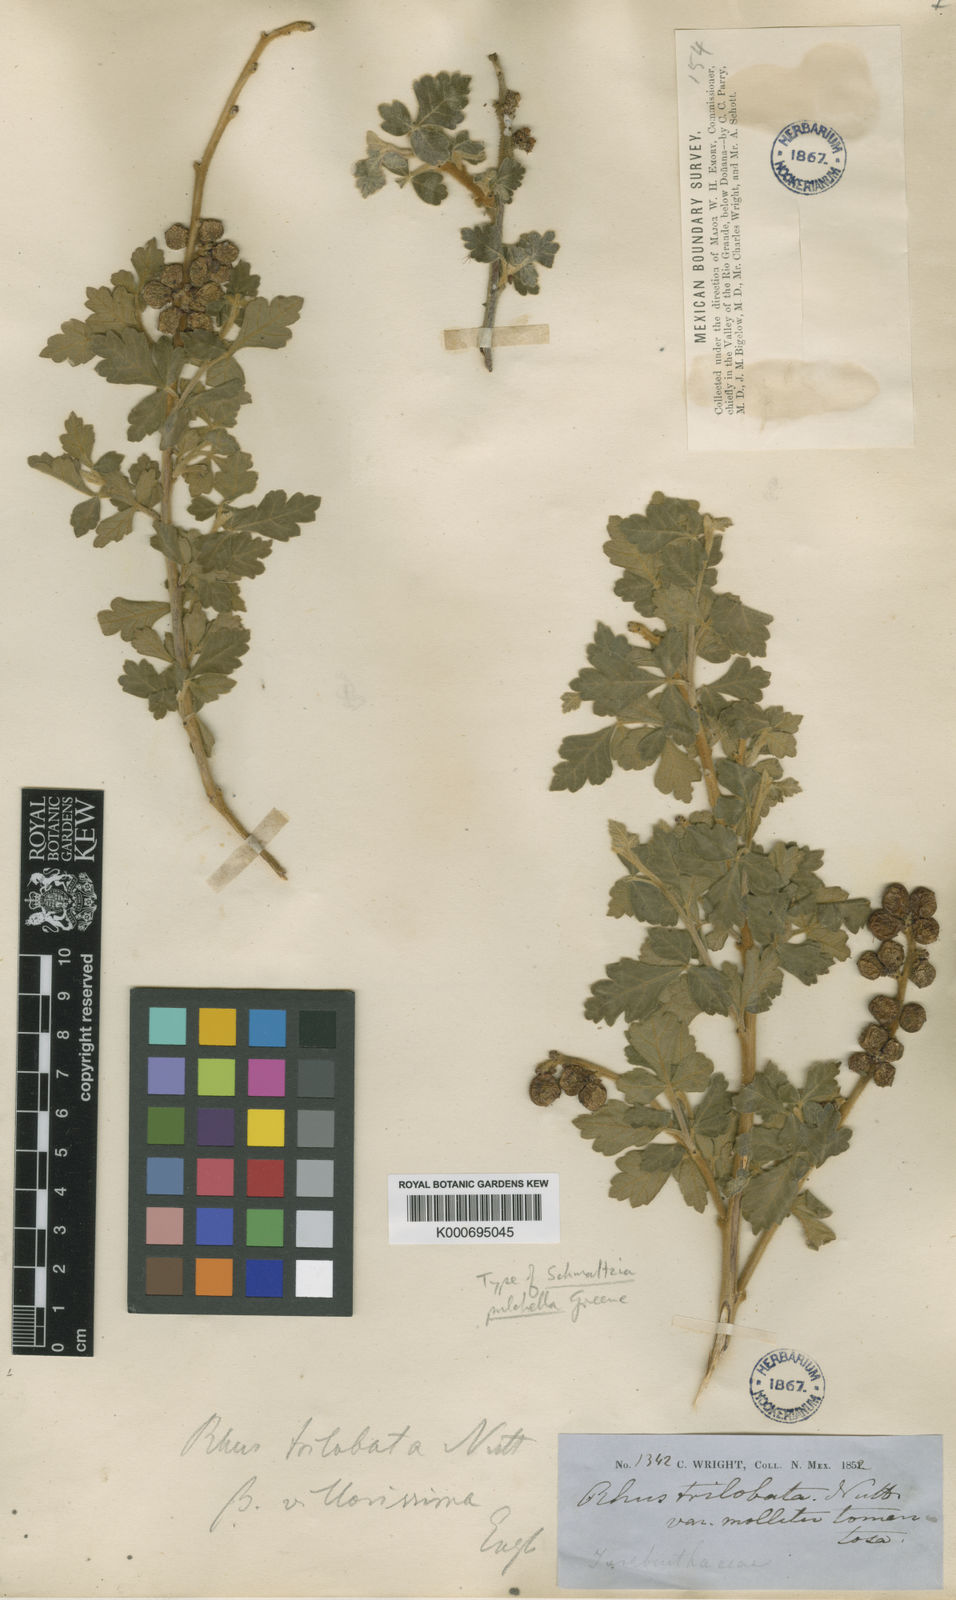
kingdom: Plantae
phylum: Tracheophyta
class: Magnoliopsida
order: Sapindales
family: Anacardiaceae
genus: Rhus
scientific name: Rhus trilobata
